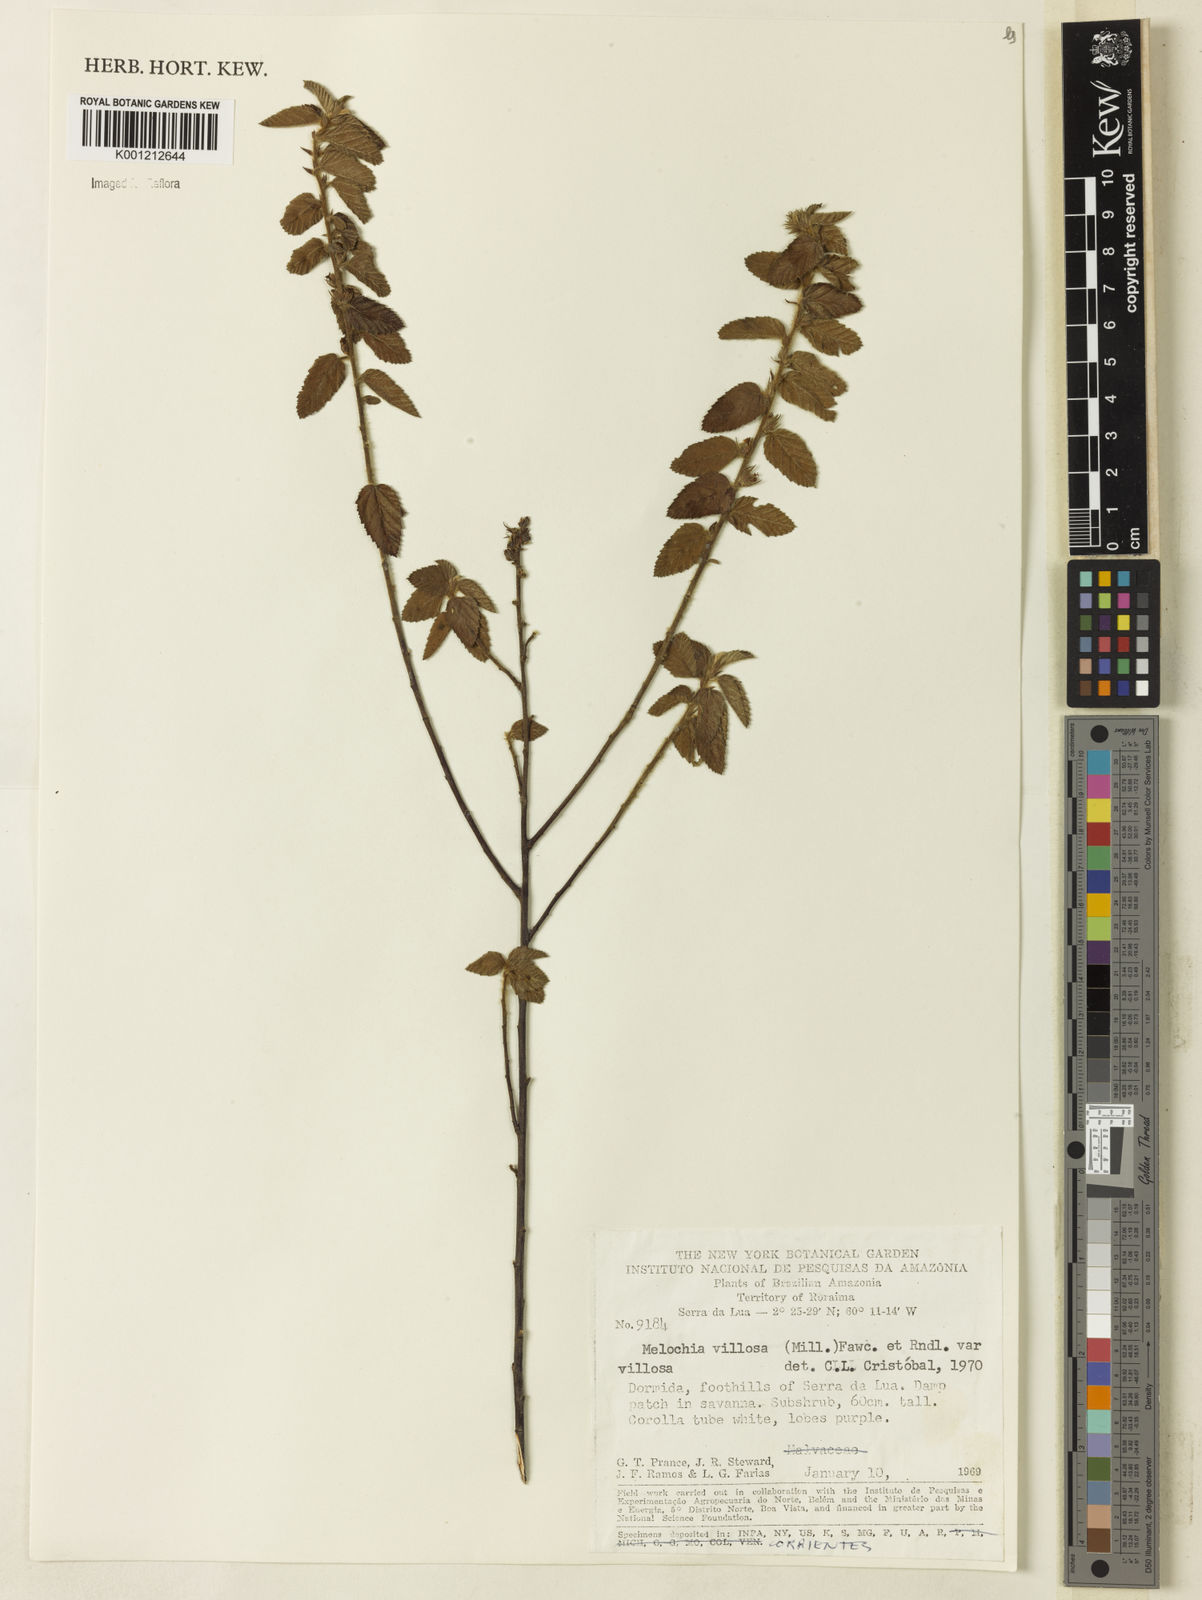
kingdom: Plantae
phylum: Tracheophyta
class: Magnoliopsida
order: Malvales
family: Malvaceae
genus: Melochia
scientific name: Melochia spicata
